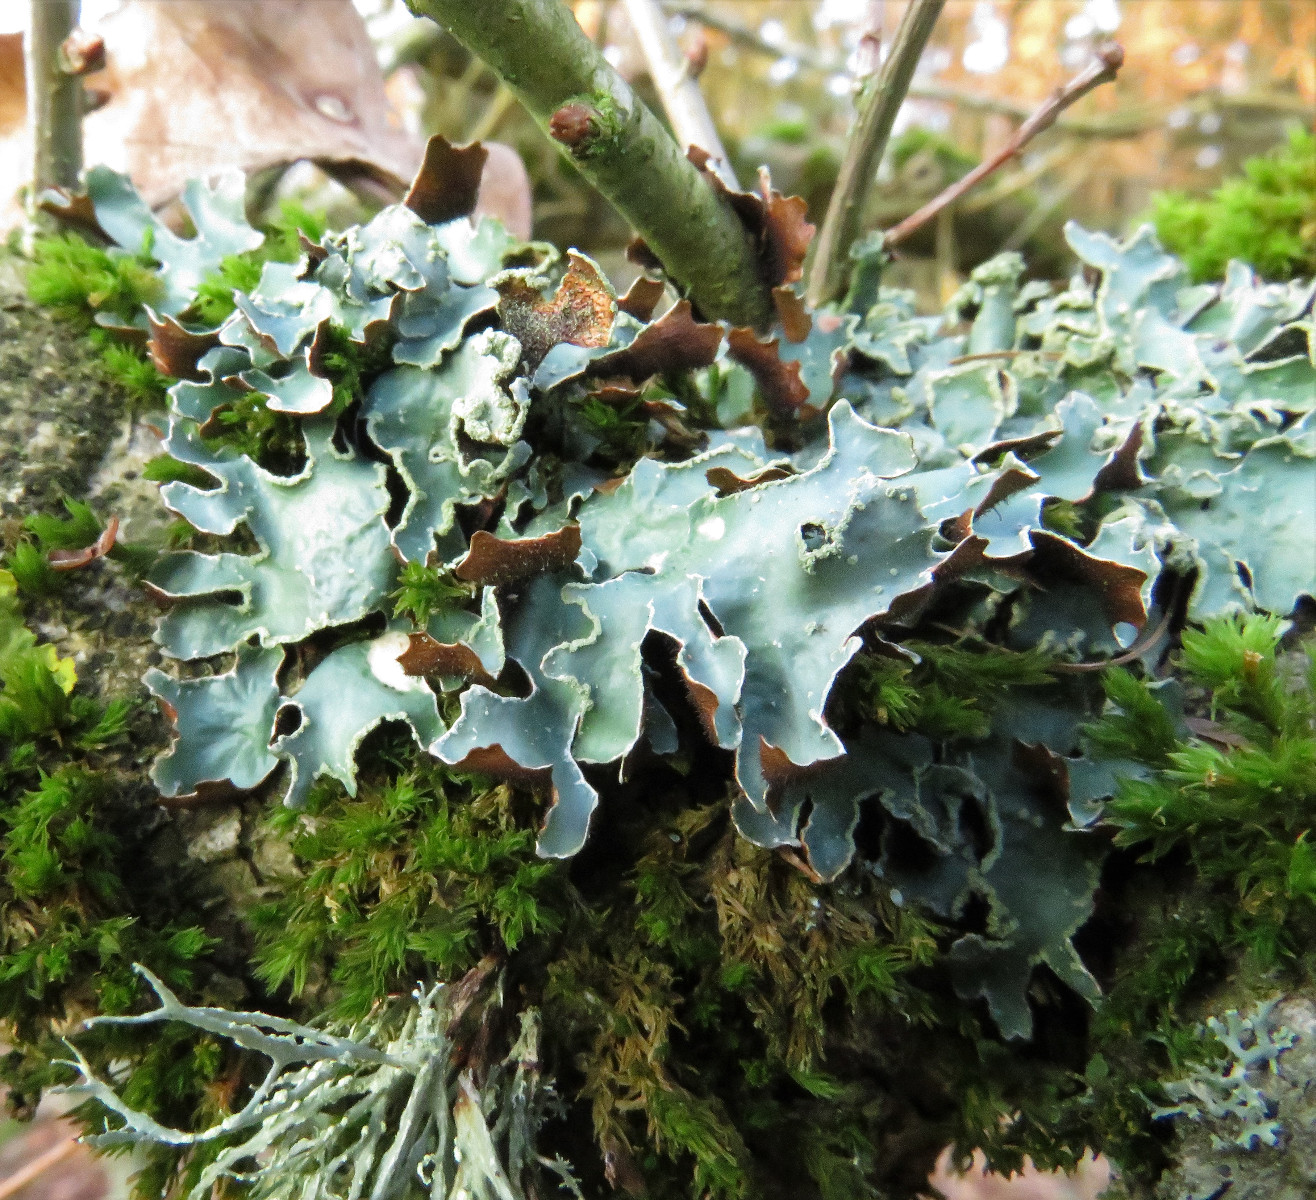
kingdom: Fungi
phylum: Ascomycota
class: Lecanoromycetes
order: Lecanorales
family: Parmeliaceae
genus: Parmelia
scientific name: Parmelia sulcata
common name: rynket skållav
